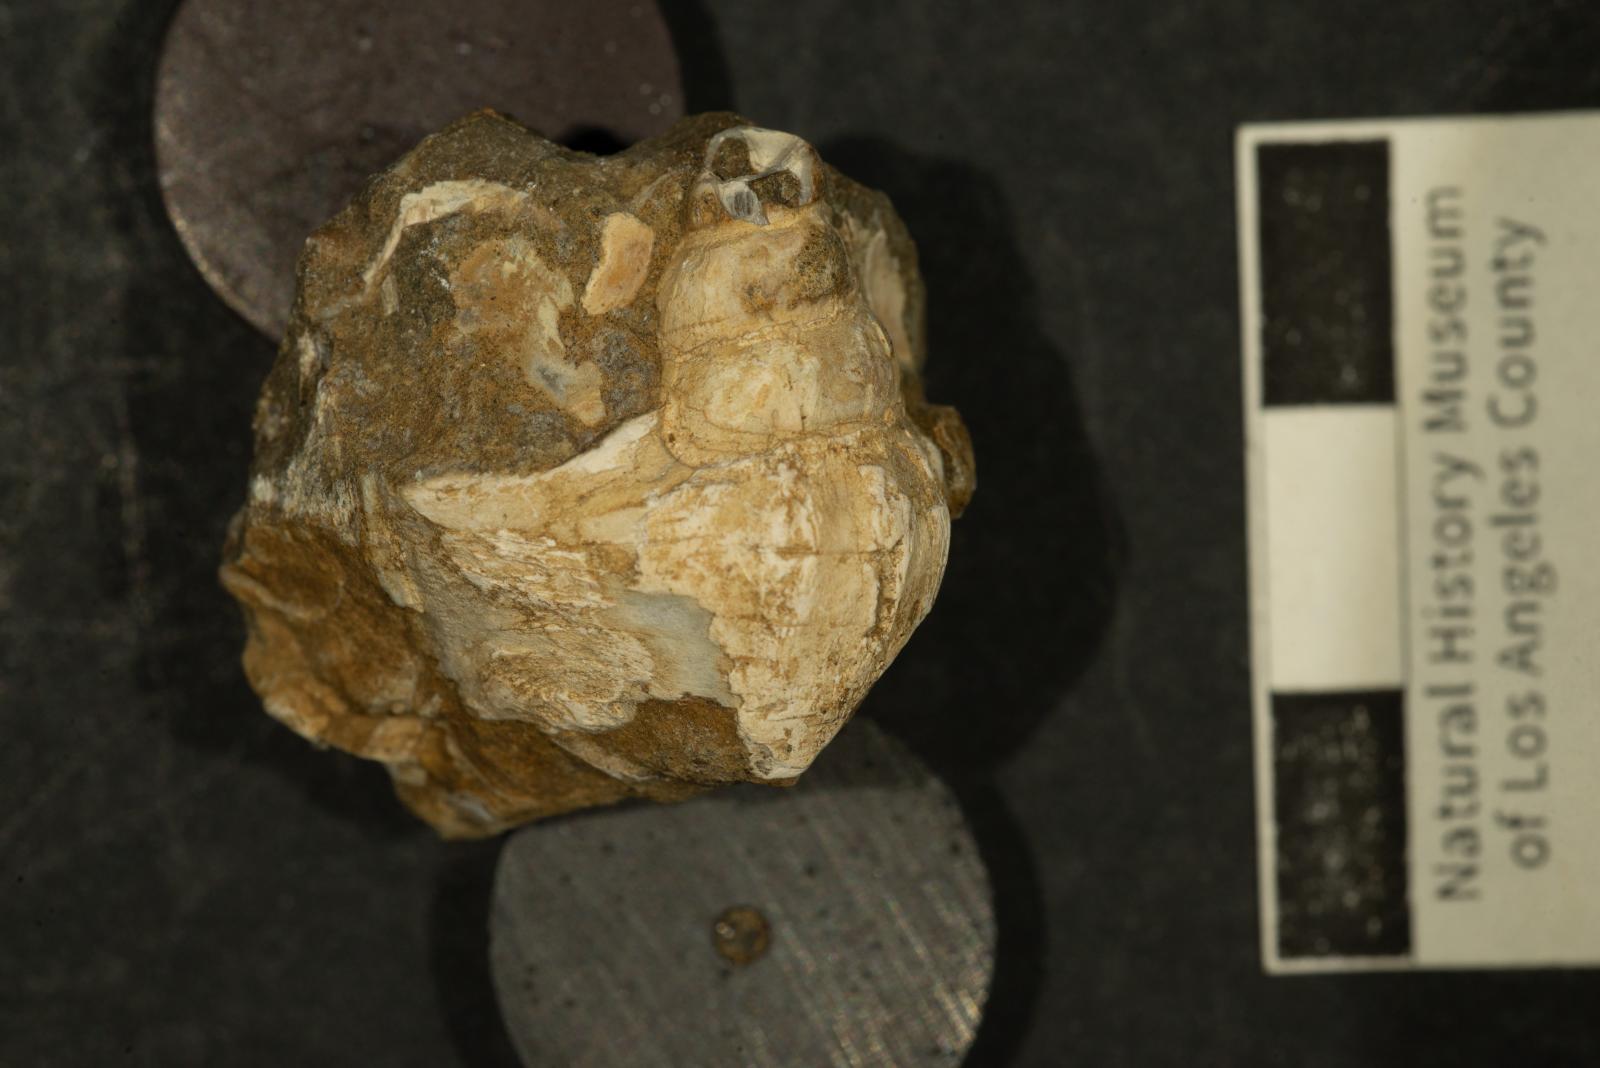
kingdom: Animalia
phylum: Mollusca
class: Gastropoda
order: Littorinimorpha
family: Aporrhaidae
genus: Latiala
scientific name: Latiala Aporrhais californica
